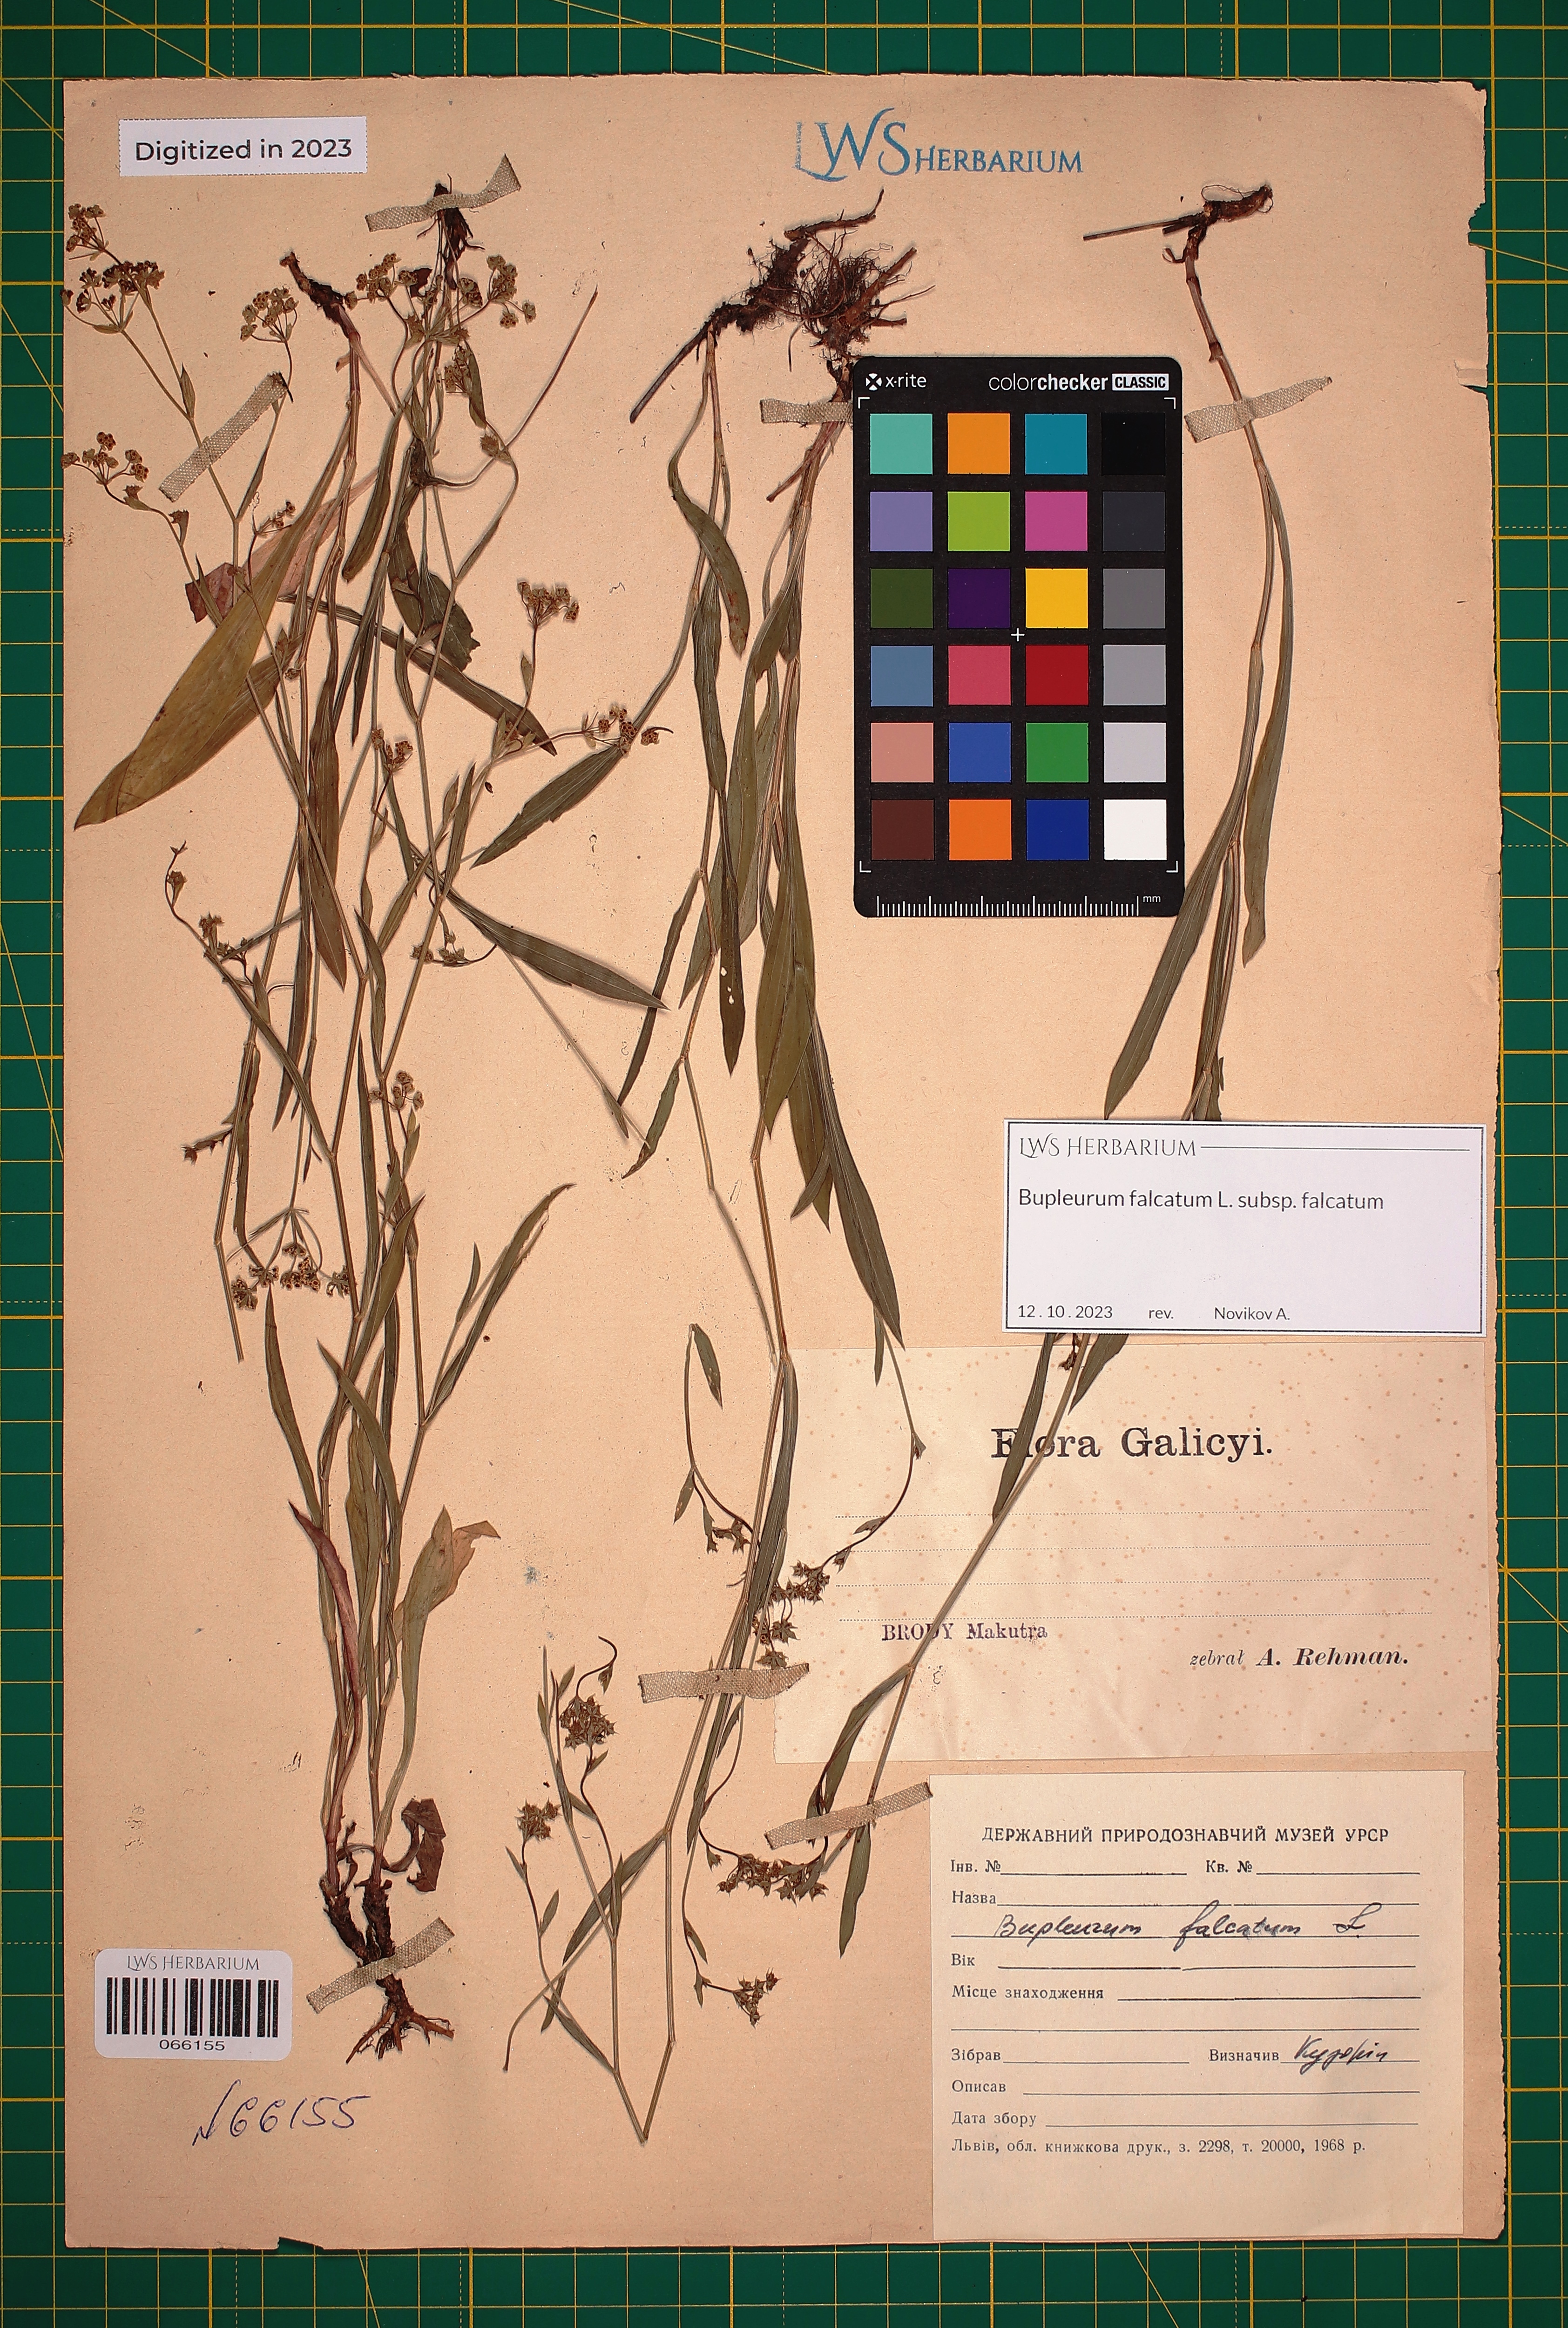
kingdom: Plantae
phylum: Tracheophyta
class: Magnoliopsida
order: Apiales
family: Apiaceae
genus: Bupleurum
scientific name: Bupleurum falcatum
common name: Sickle-leaved hare's-ear
